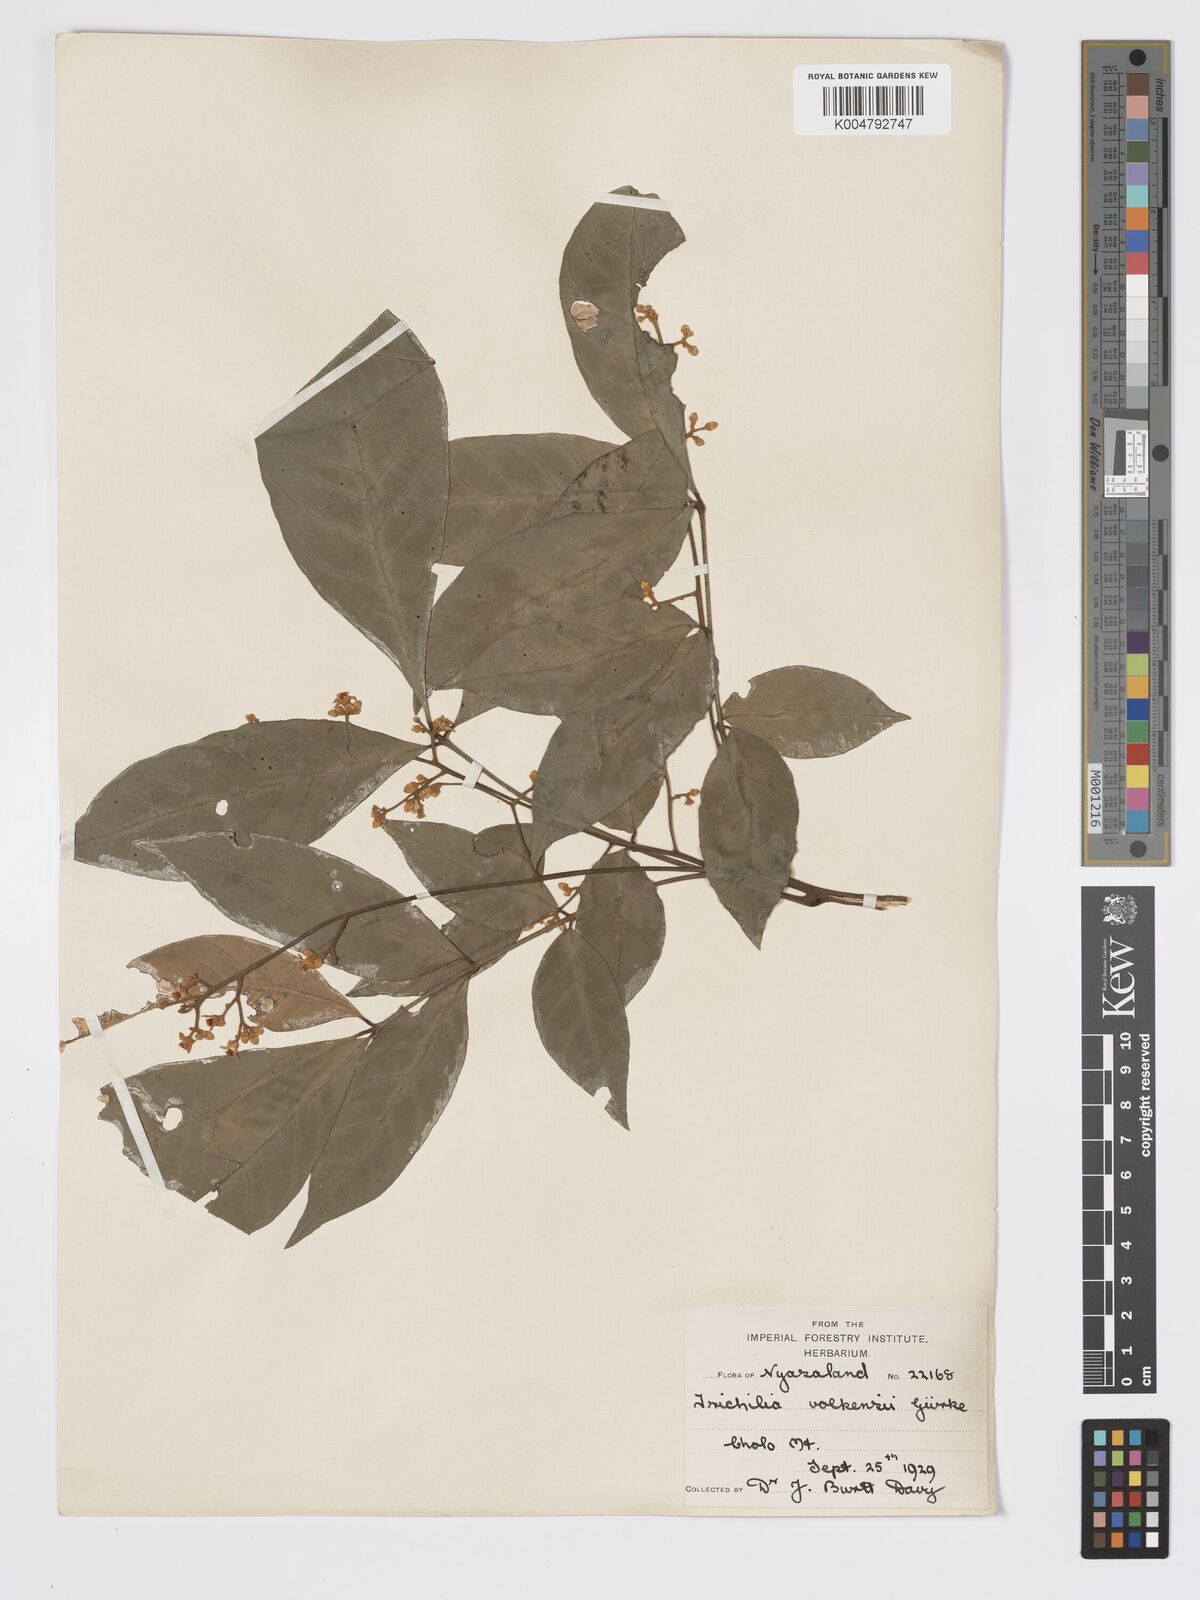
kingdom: Plantae
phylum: Tracheophyta
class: Magnoliopsida
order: Sapindales
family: Meliaceae
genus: Lepidotrichilia
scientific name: Lepidotrichilia volkensii
